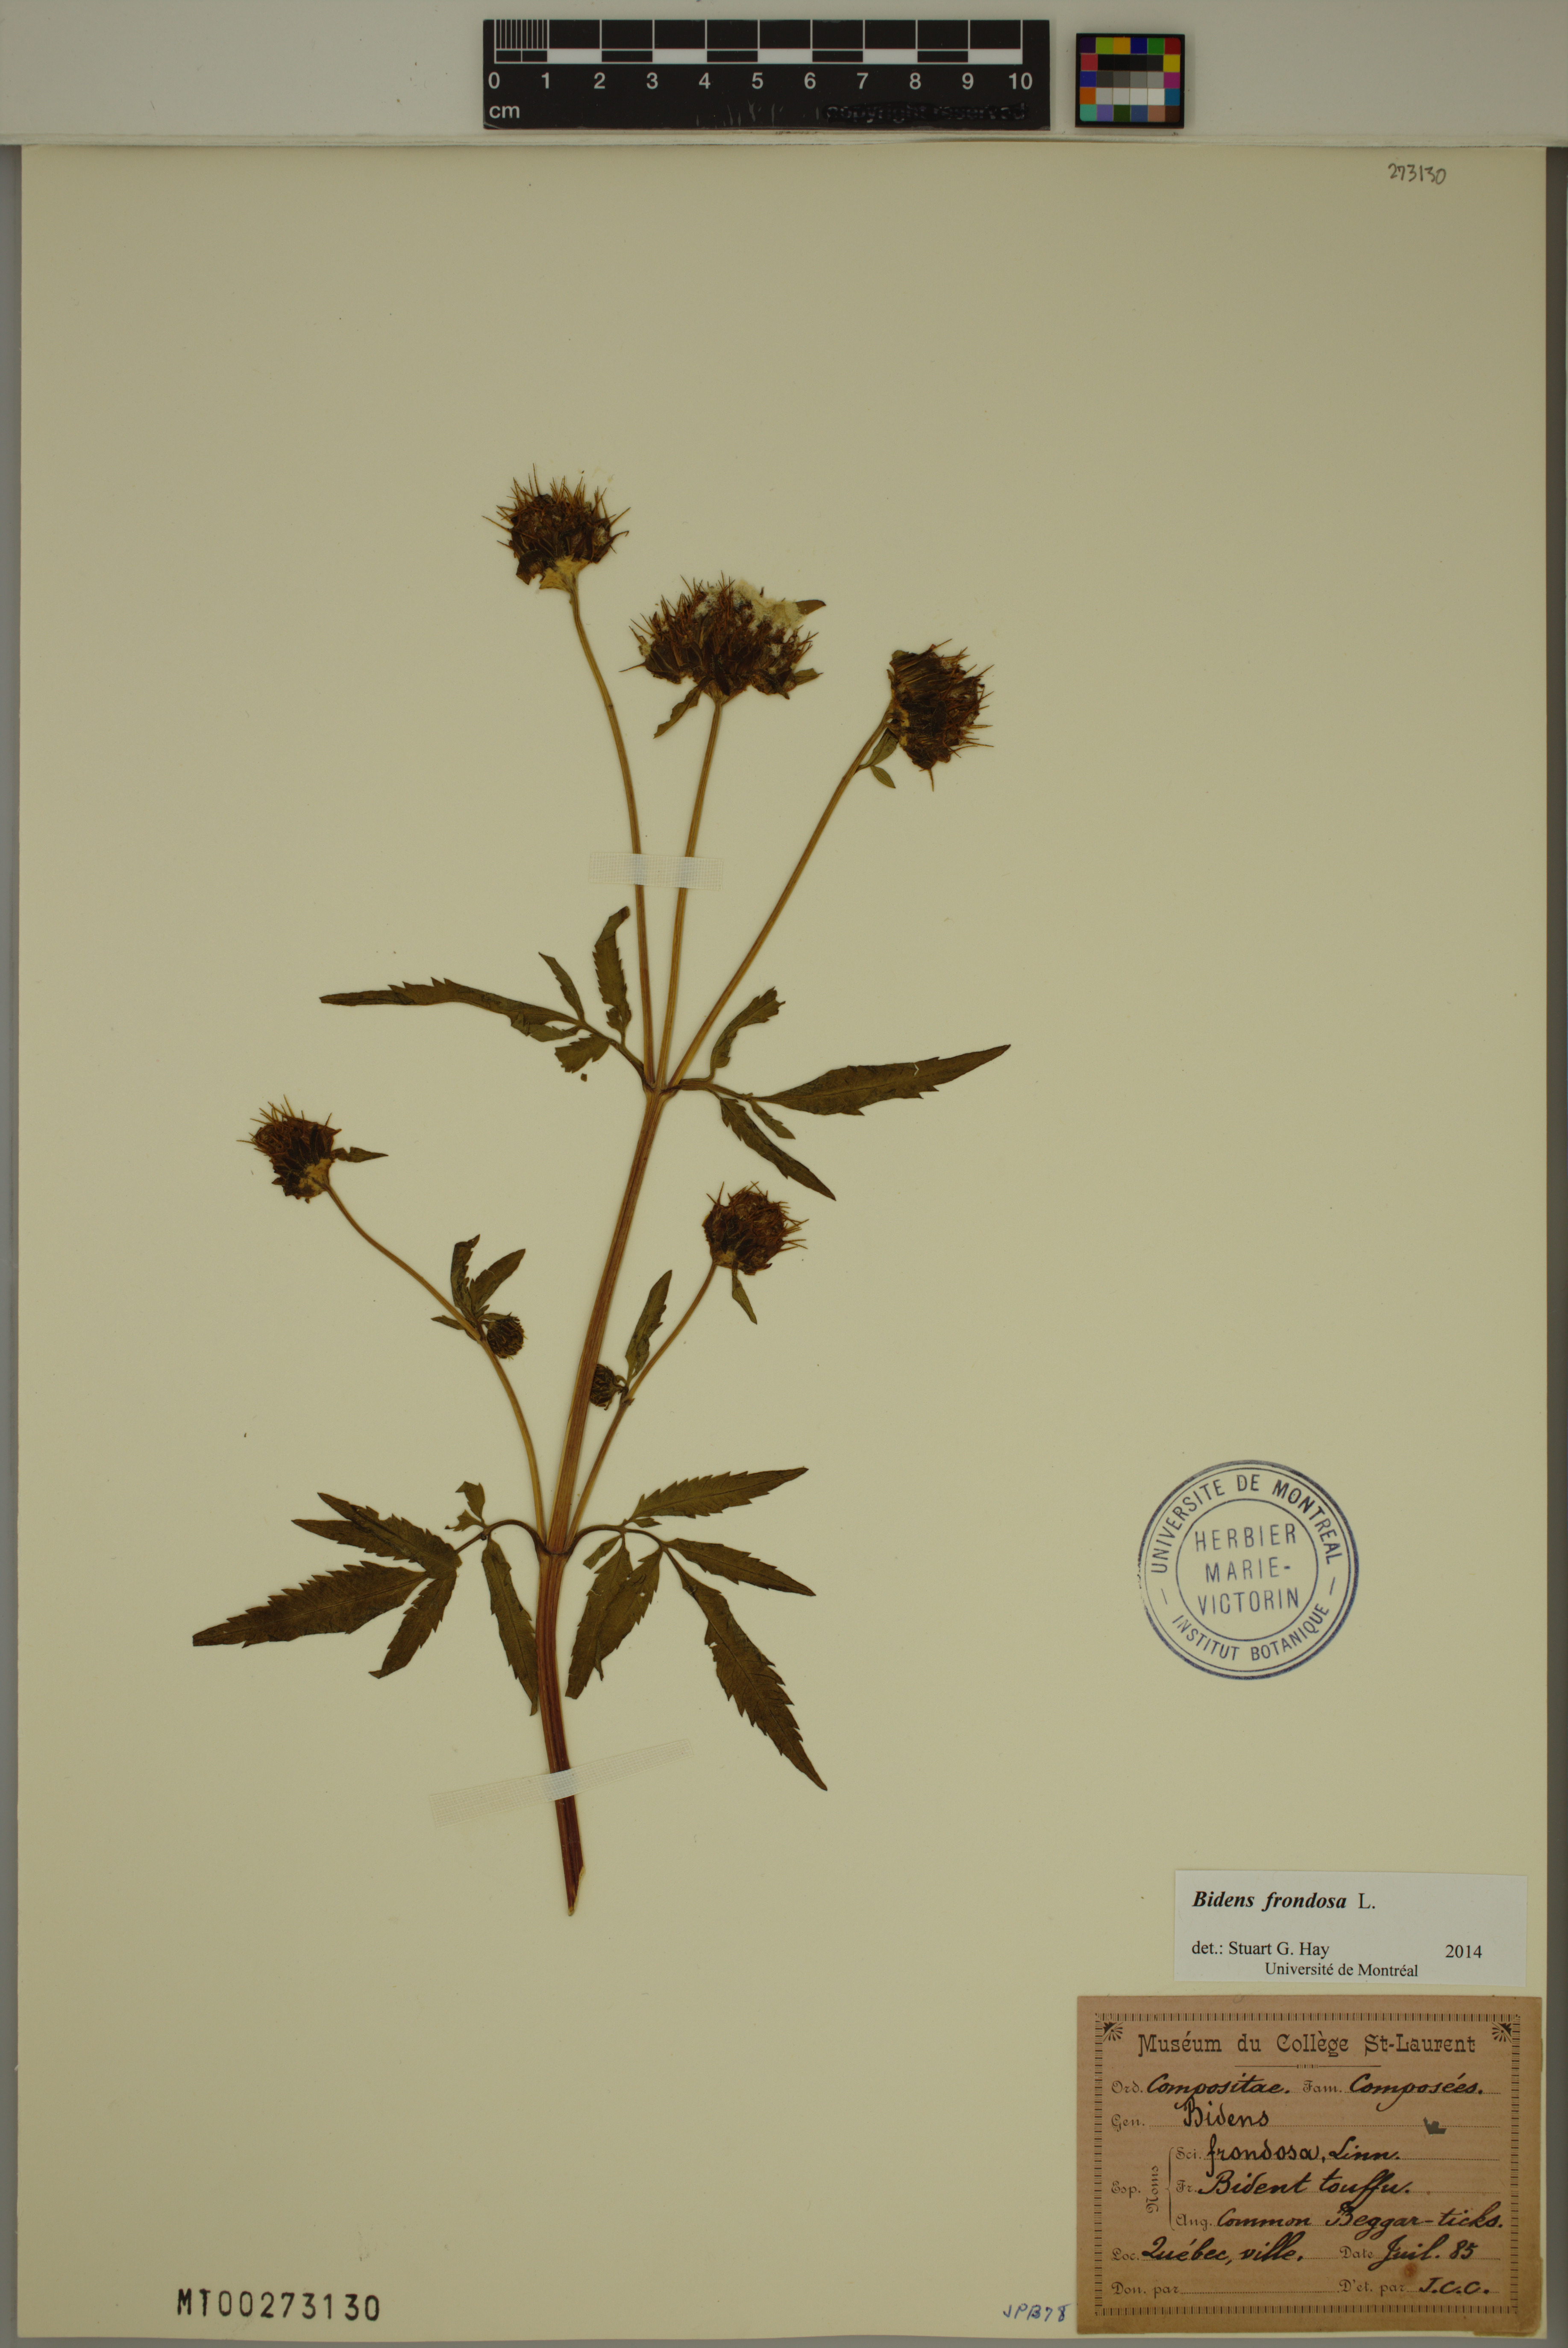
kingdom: Plantae
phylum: Tracheophyta
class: Magnoliopsida
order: Asterales
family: Asteraceae
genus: Bidens
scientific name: Bidens frondosa
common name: Beggarticks
